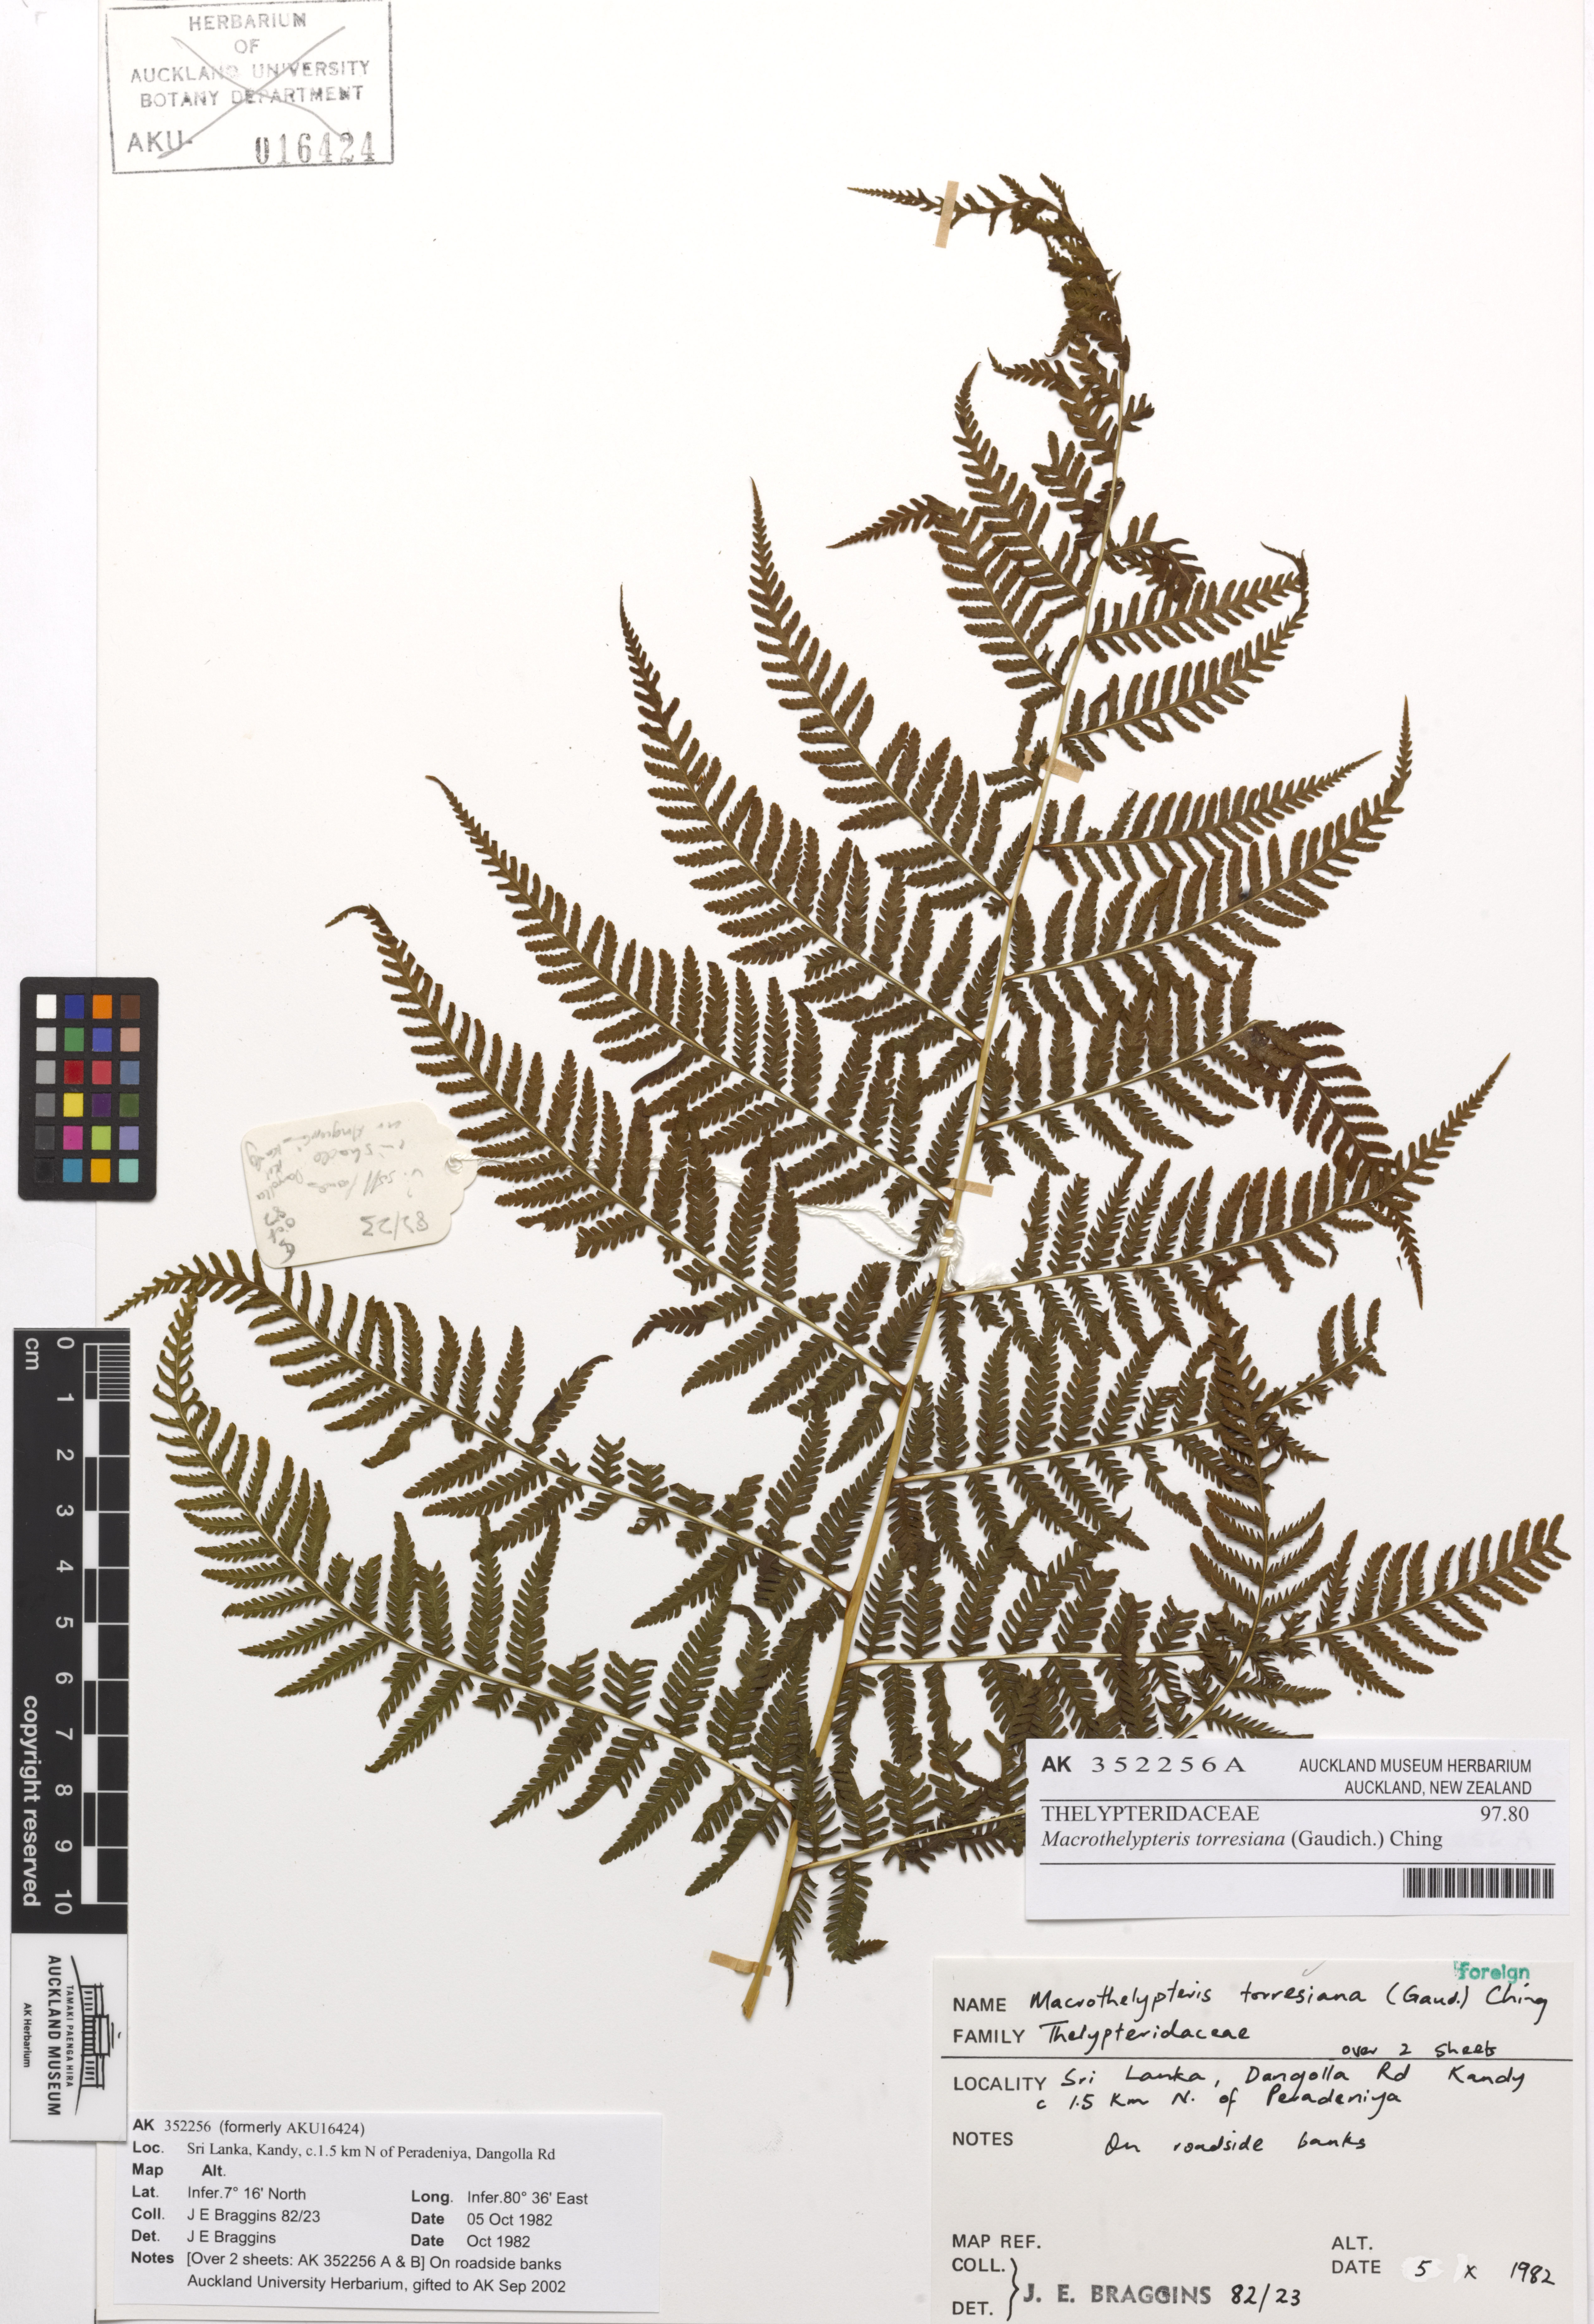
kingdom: Plantae
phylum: Tracheophyta
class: Polypodiopsida
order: Polypodiales
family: Thelypteridaceae
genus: Macrothelypteris
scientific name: Macrothelypteris torresiana
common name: Swordfern
